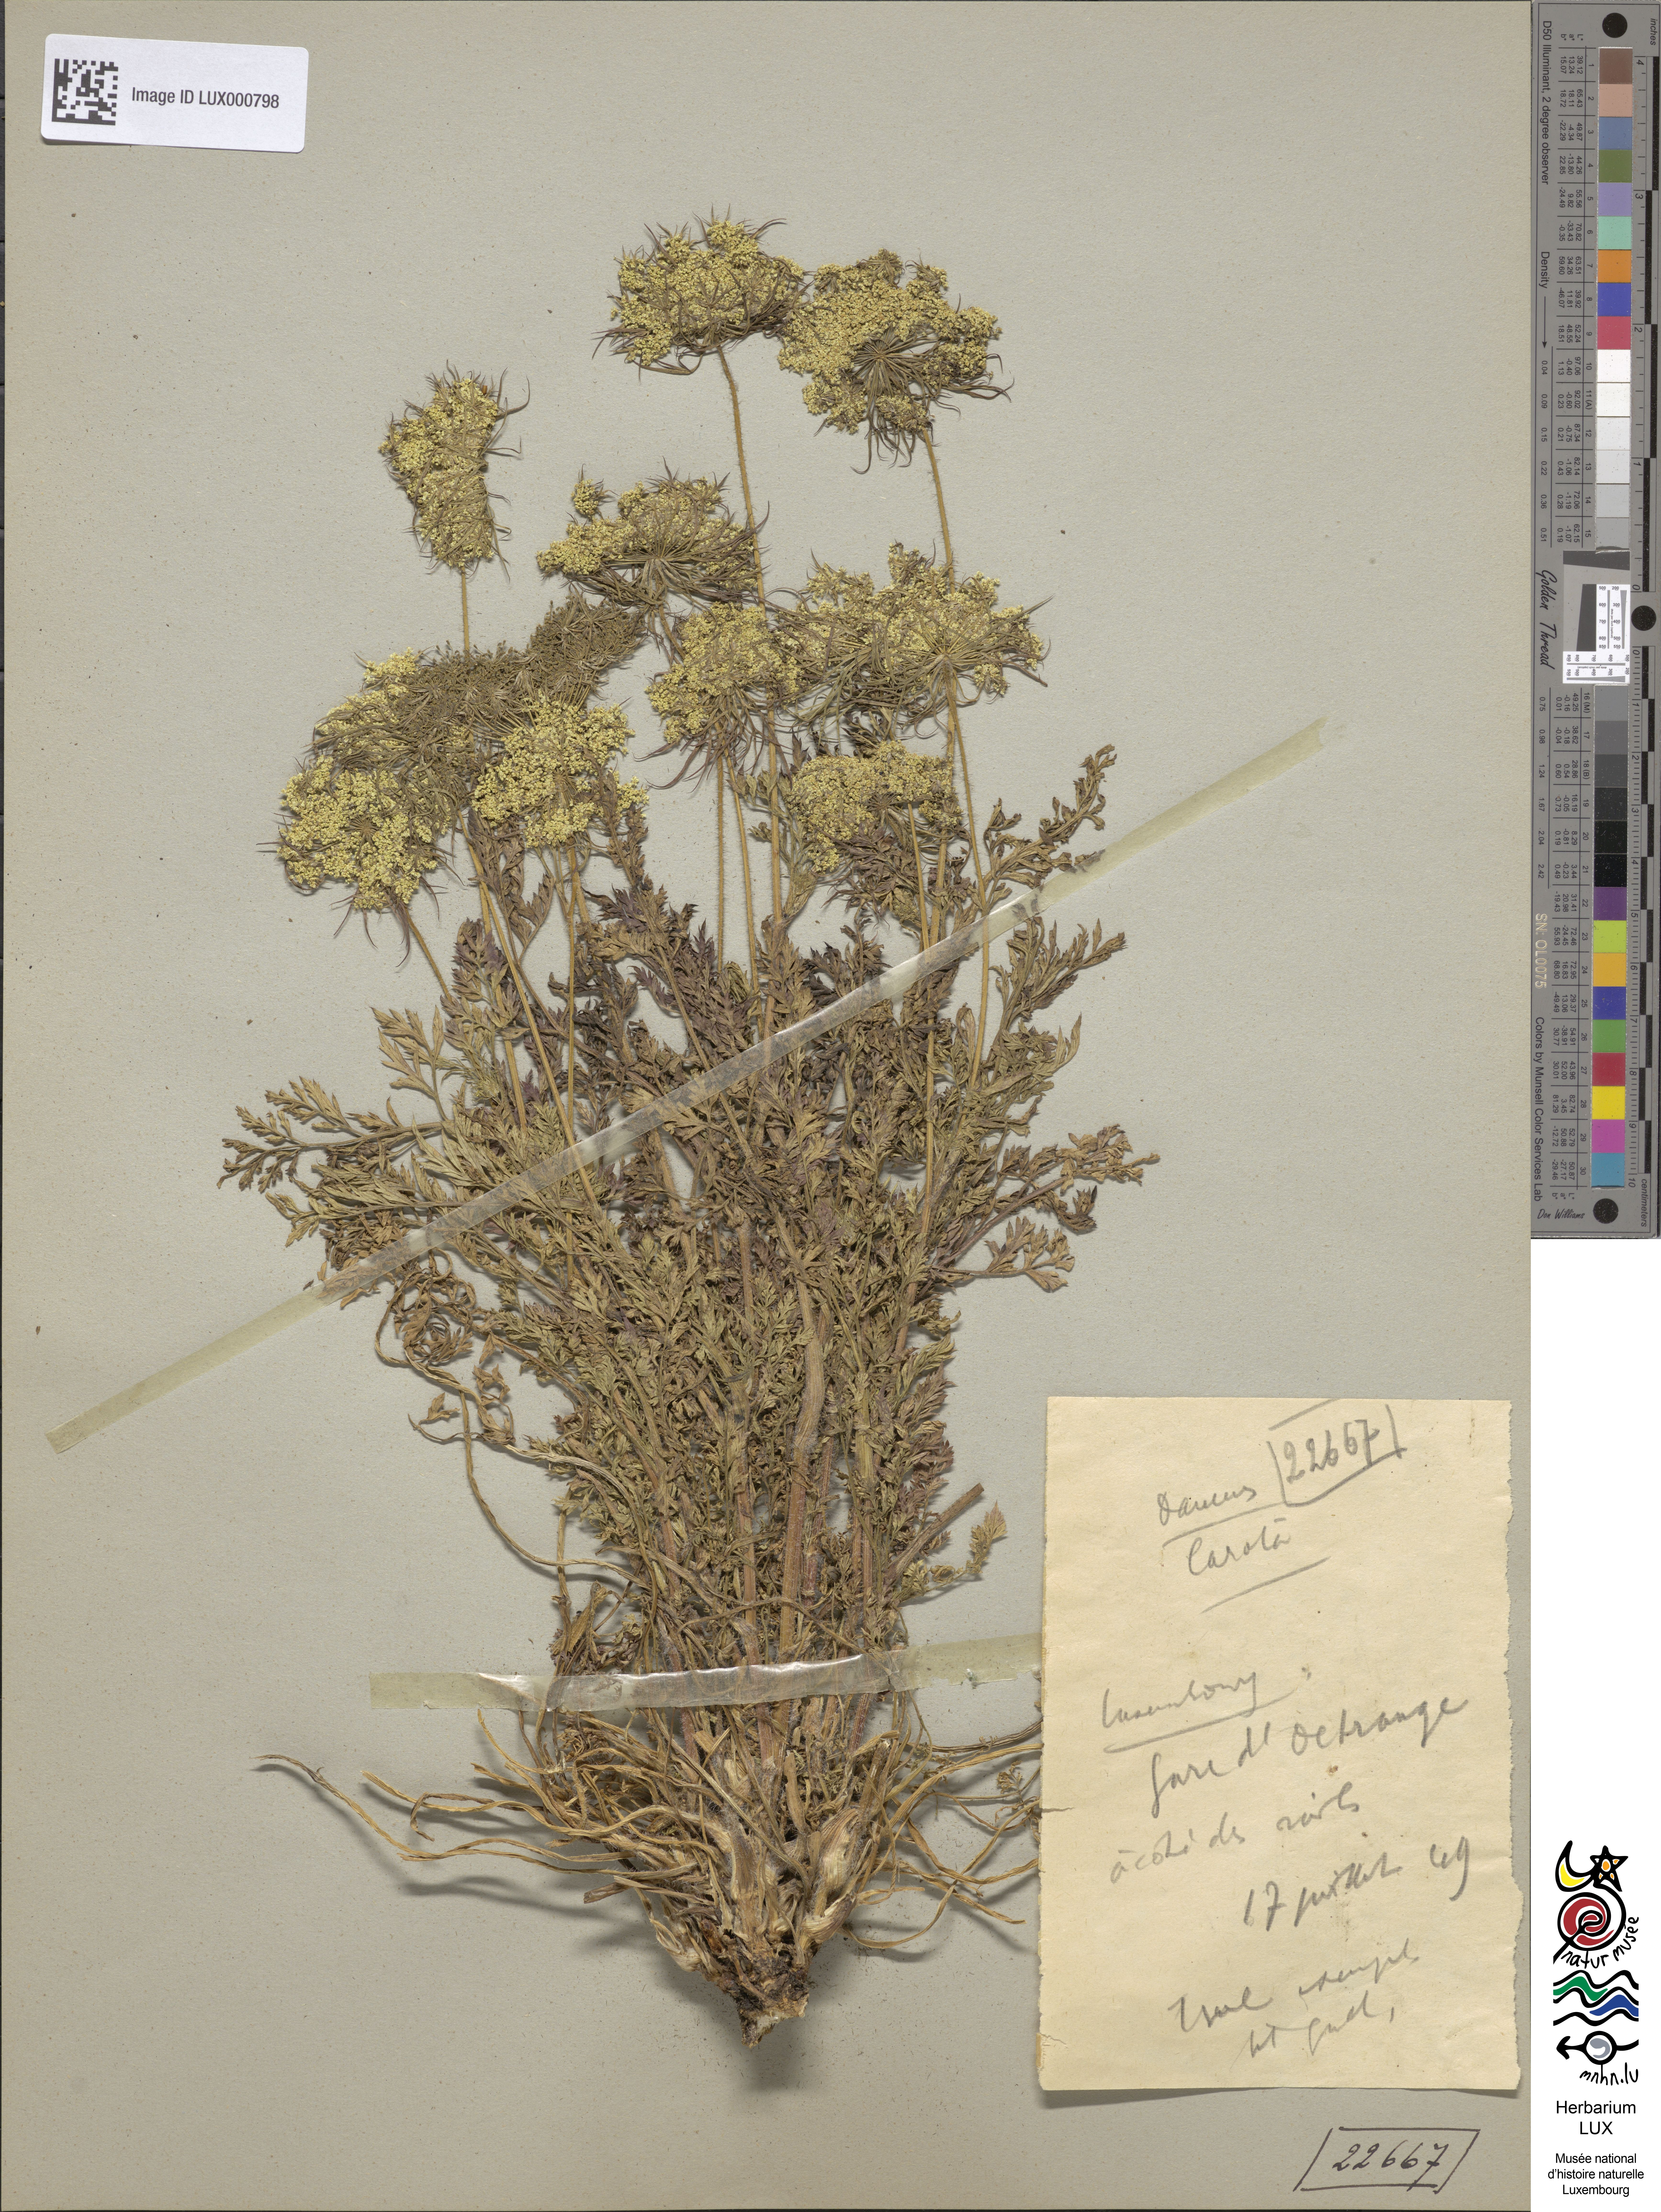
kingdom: Plantae
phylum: Tracheophyta
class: Magnoliopsida
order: Apiales
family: Apiaceae
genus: Daucus
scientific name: Daucus carota
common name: Wild carrot
